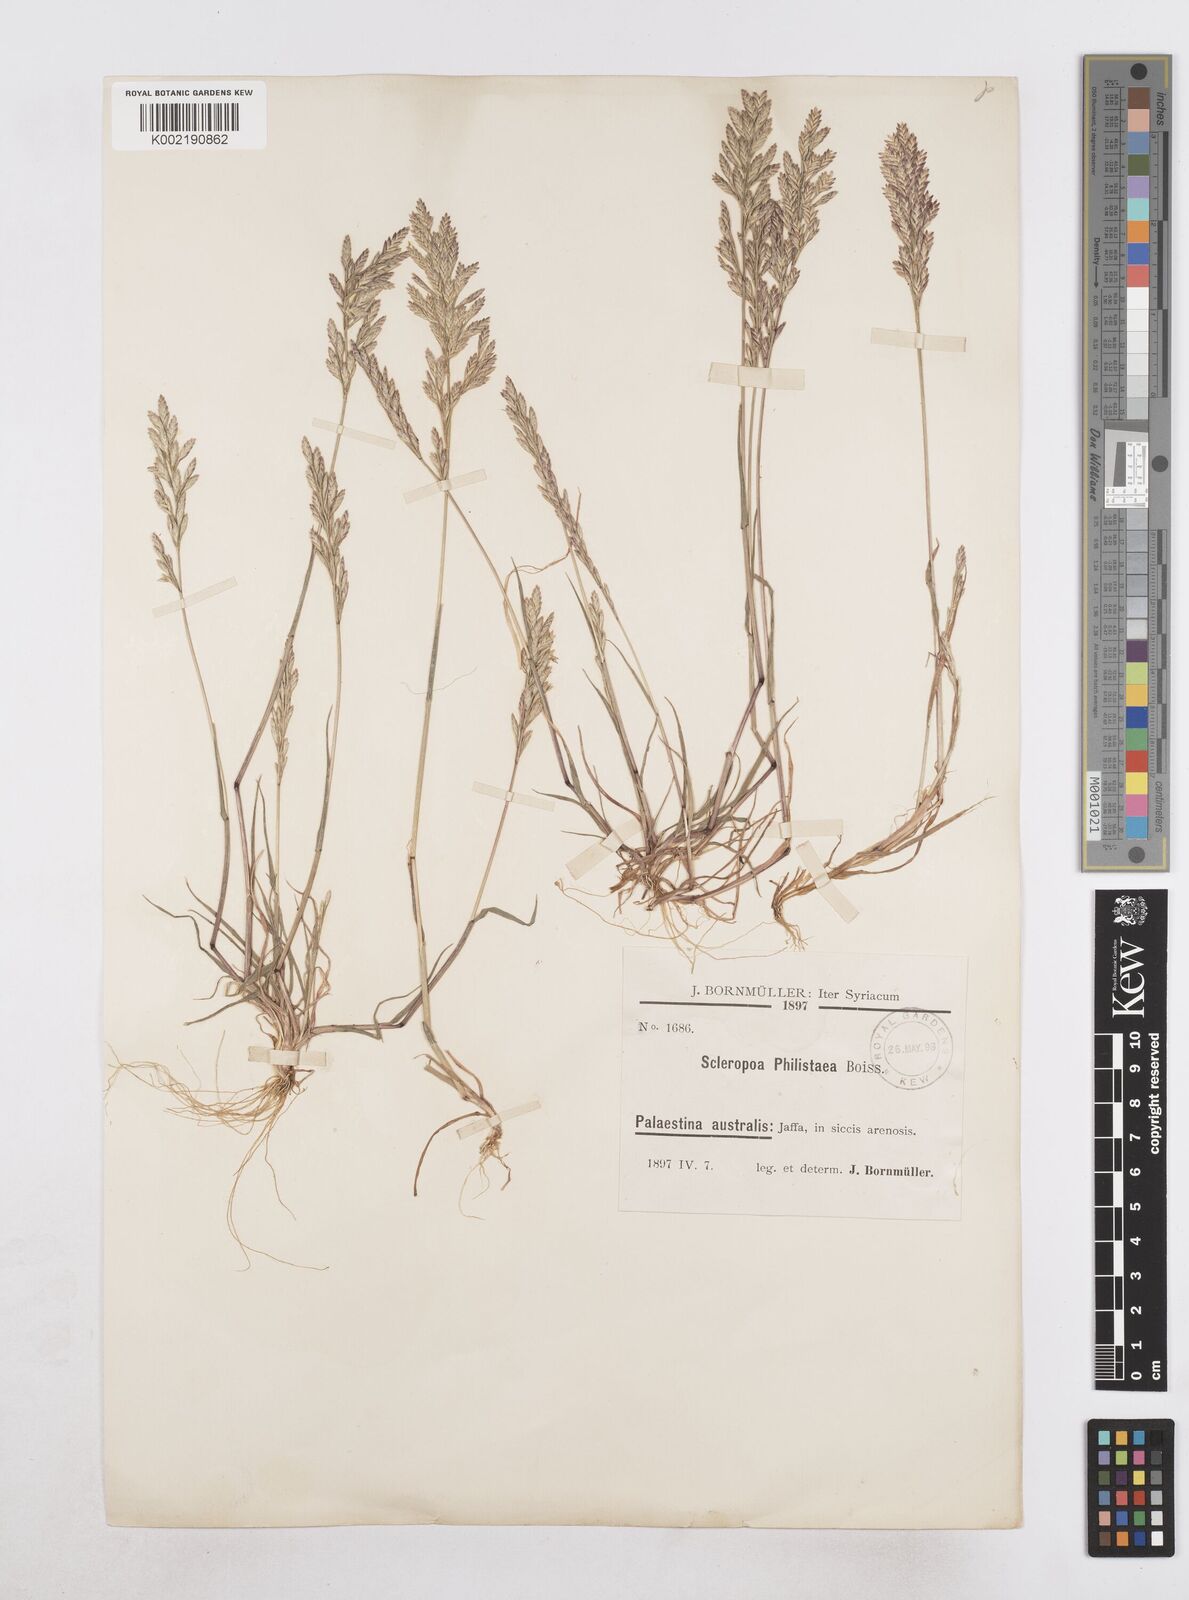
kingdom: Plantae
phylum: Tracheophyta
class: Liliopsida
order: Poales
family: Poaceae
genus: Desmazeria
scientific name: Desmazeria philistaea
